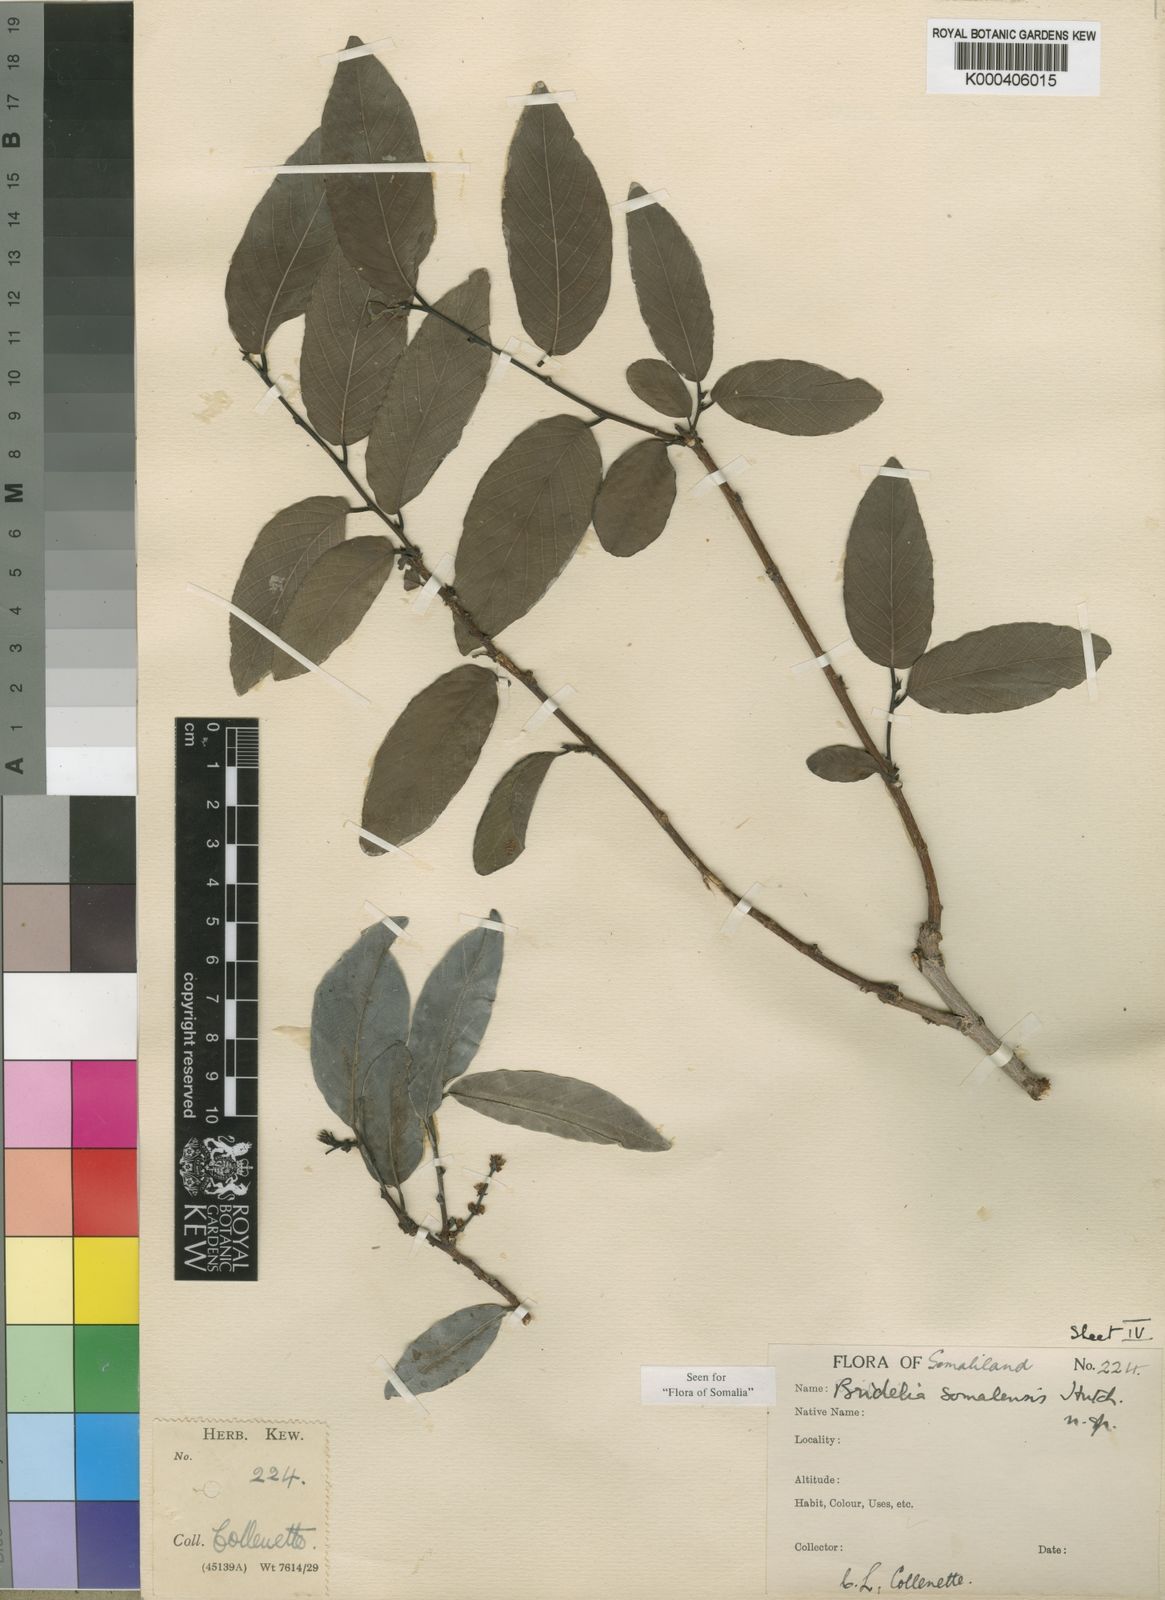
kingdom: Plantae
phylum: Tracheophyta
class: Magnoliopsida
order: Malpighiales
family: Phyllanthaceae
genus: Bridelia
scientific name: Bridelia somalensis
